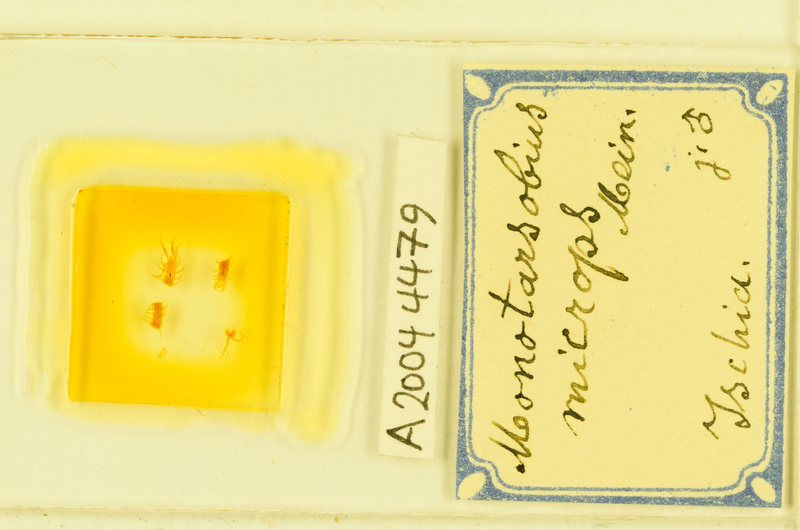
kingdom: Animalia
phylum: Arthropoda
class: Chilopoda
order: Lithobiomorpha
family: Lithobiidae
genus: Monotarsobius
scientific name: Monotarsobius microps
